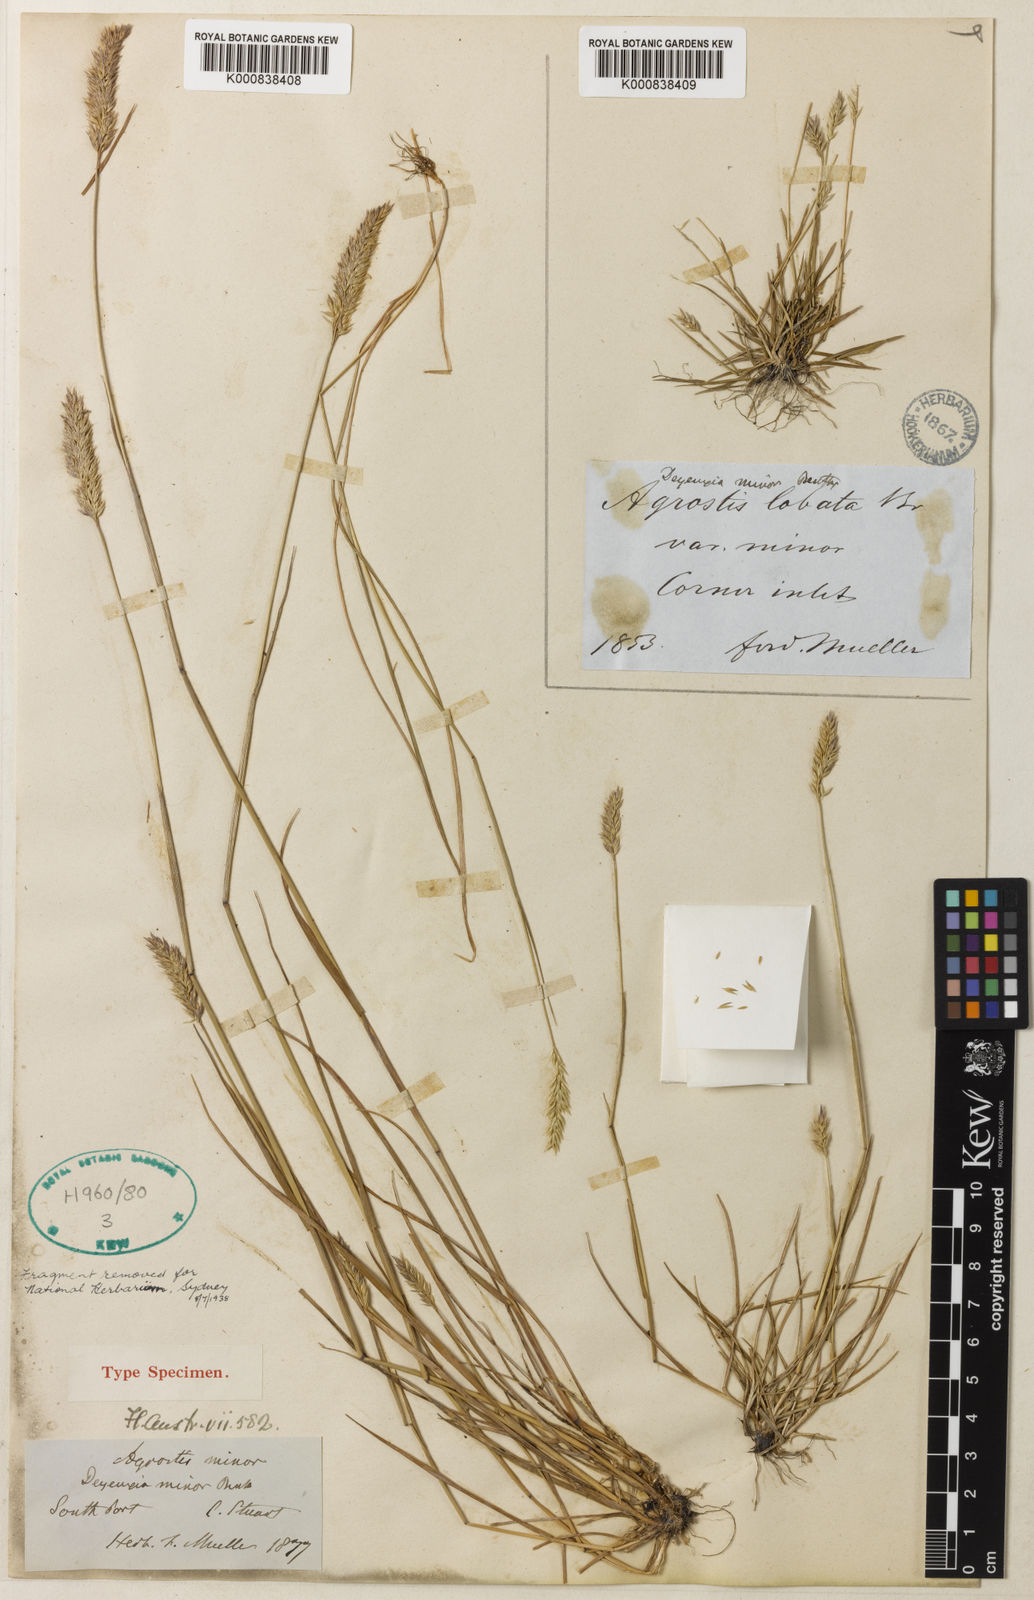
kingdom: Plantae
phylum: Tracheophyta
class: Liliopsida
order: Poales
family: Poaceae
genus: Calamagrostis
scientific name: Calamagrostis minor
